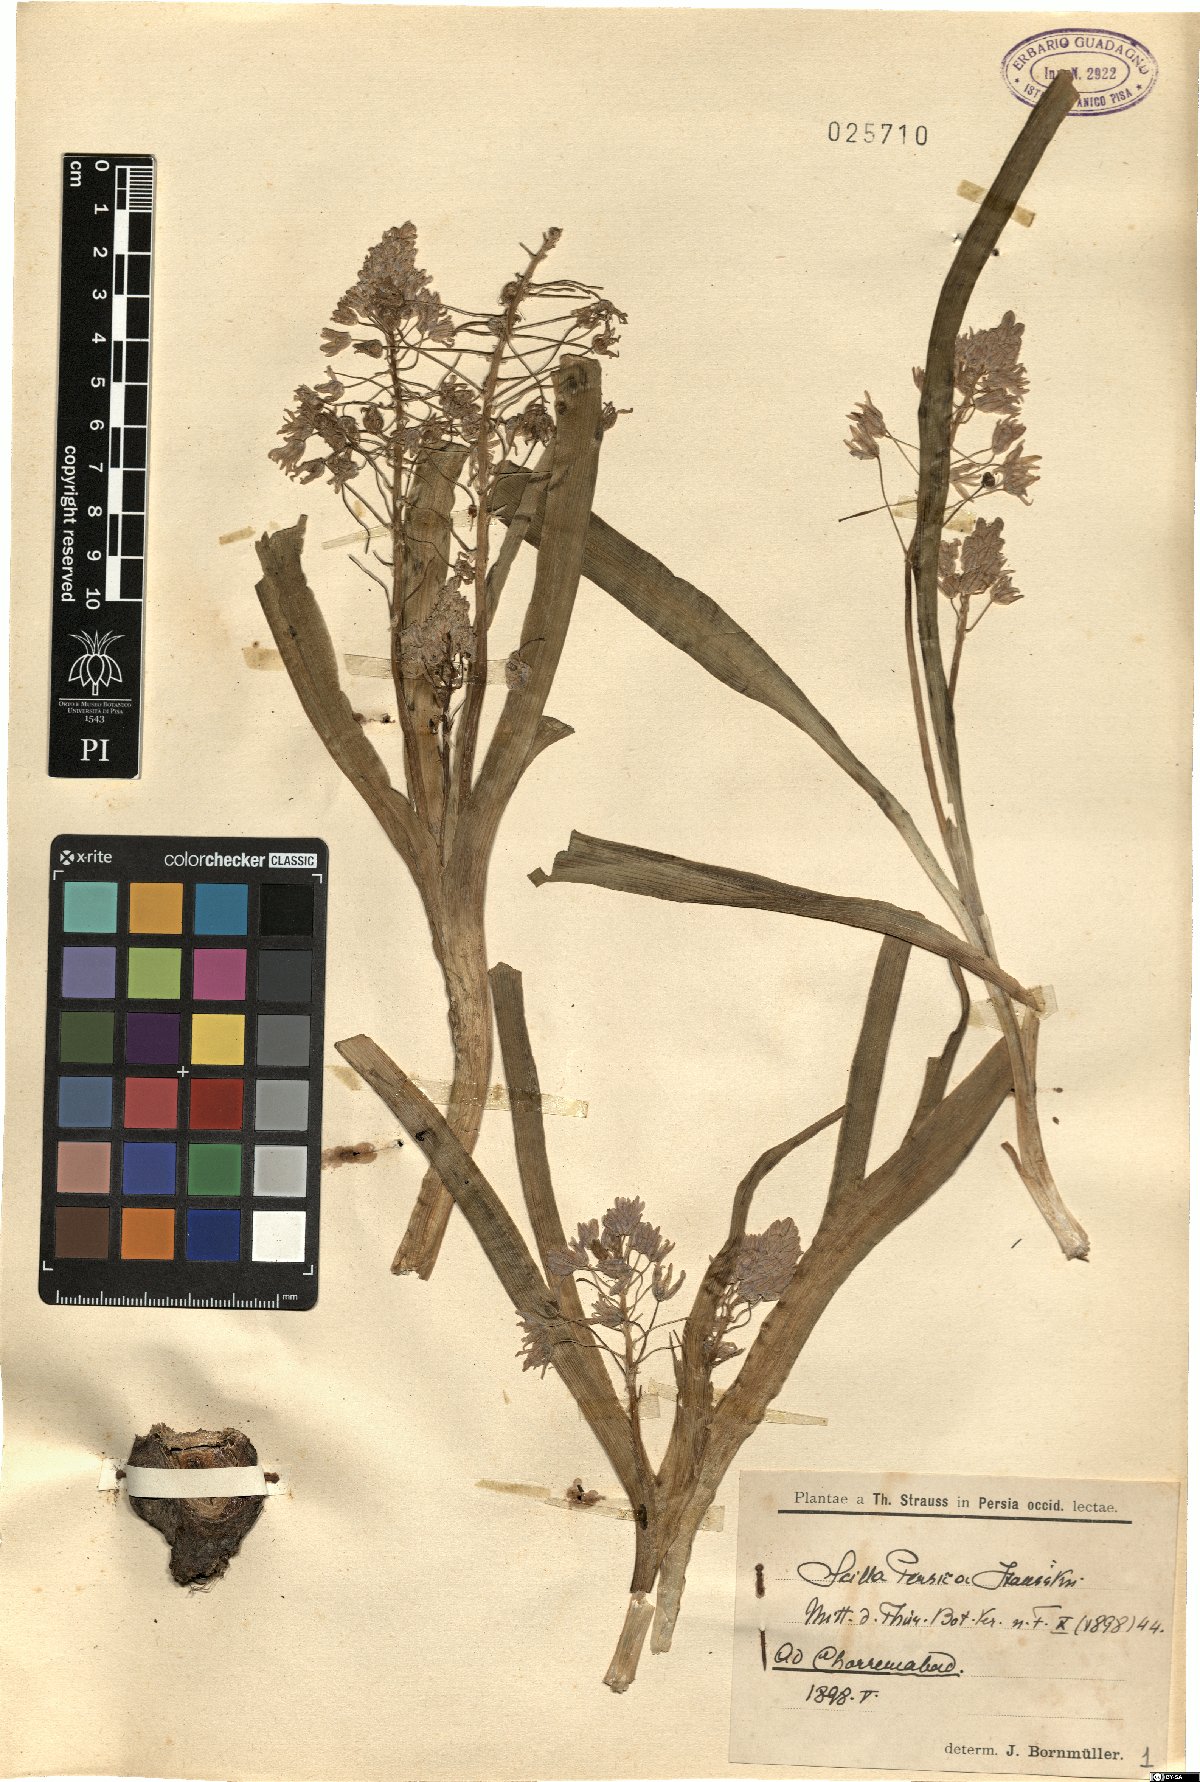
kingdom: Plantae
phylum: Tracheophyta
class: Liliopsida
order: Asparagales
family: Asparagaceae
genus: Zagrosia
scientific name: Zagrosia persica
